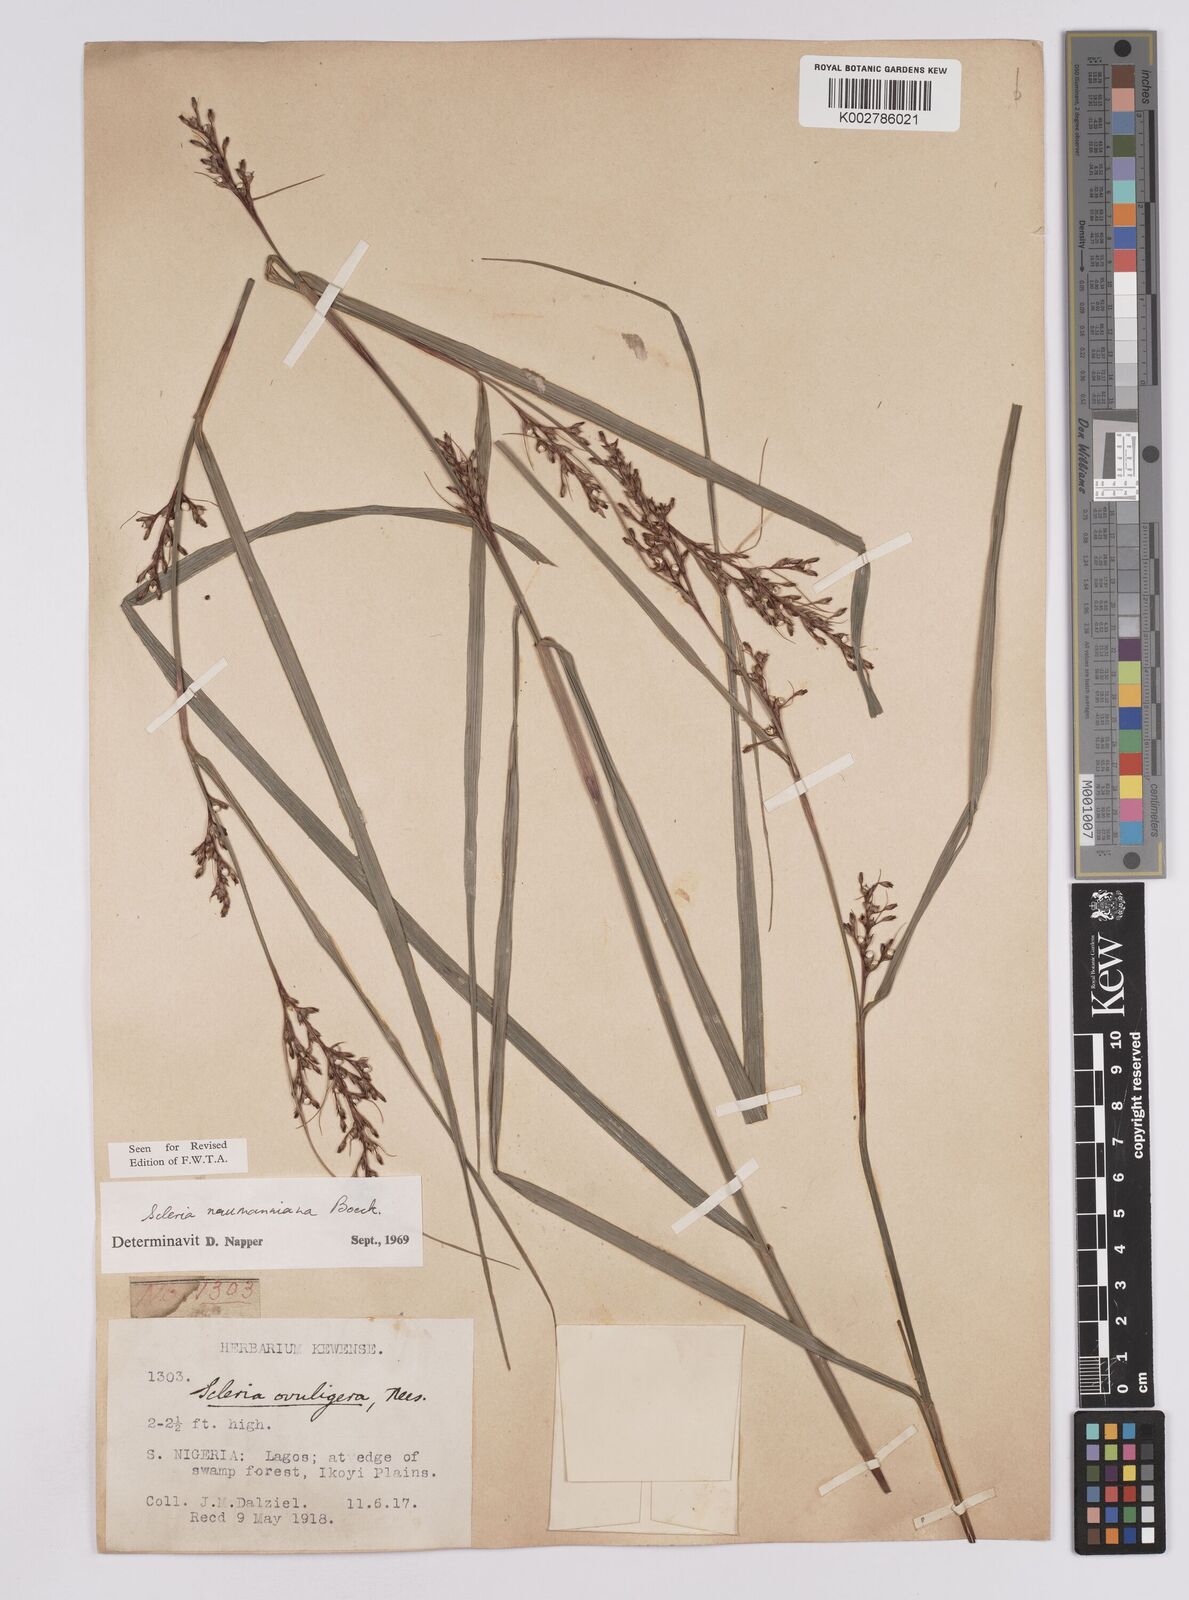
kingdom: Plantae
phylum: Tracheophyta
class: Liliopsida
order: Poales
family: Cyperaceae
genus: Scleria
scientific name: Scleria naumanniana
